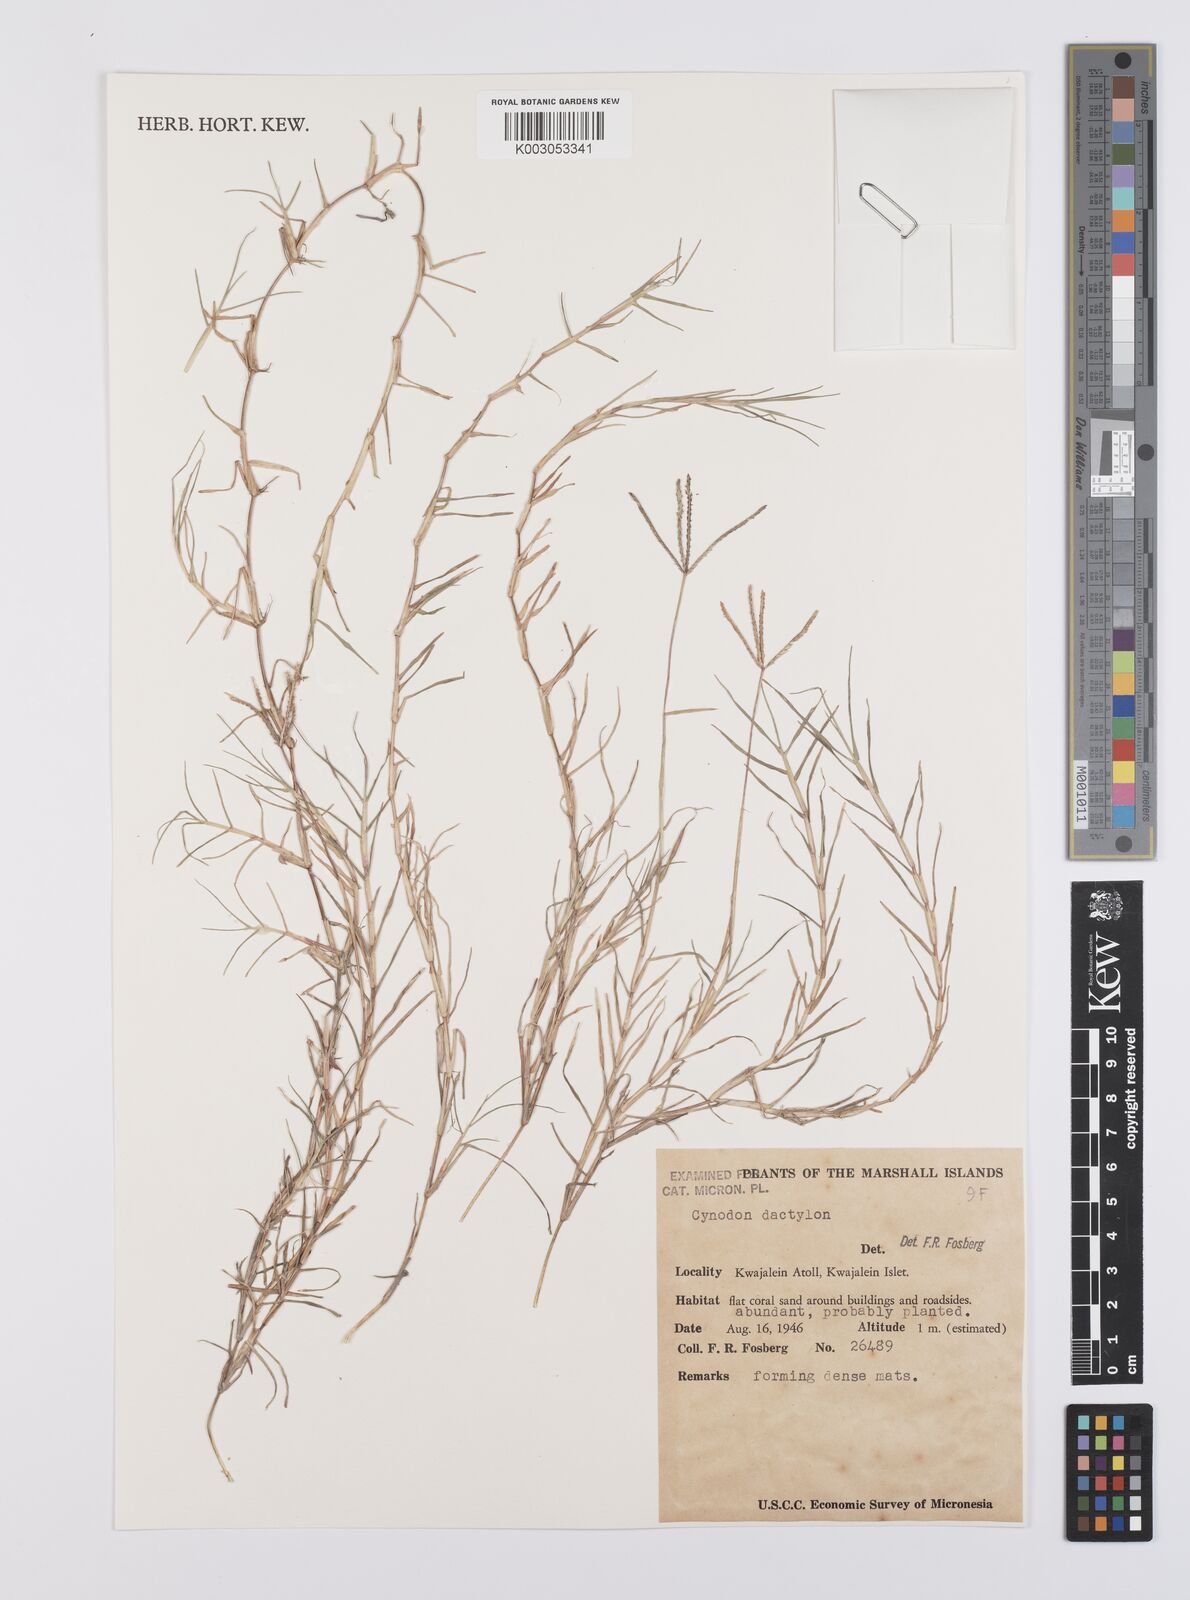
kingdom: Plantae
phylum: Tracheophyta
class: Liliopsida
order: Poales
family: Poaceae
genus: Cynodon
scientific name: Cynodon dactylon
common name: Bermuda grass
